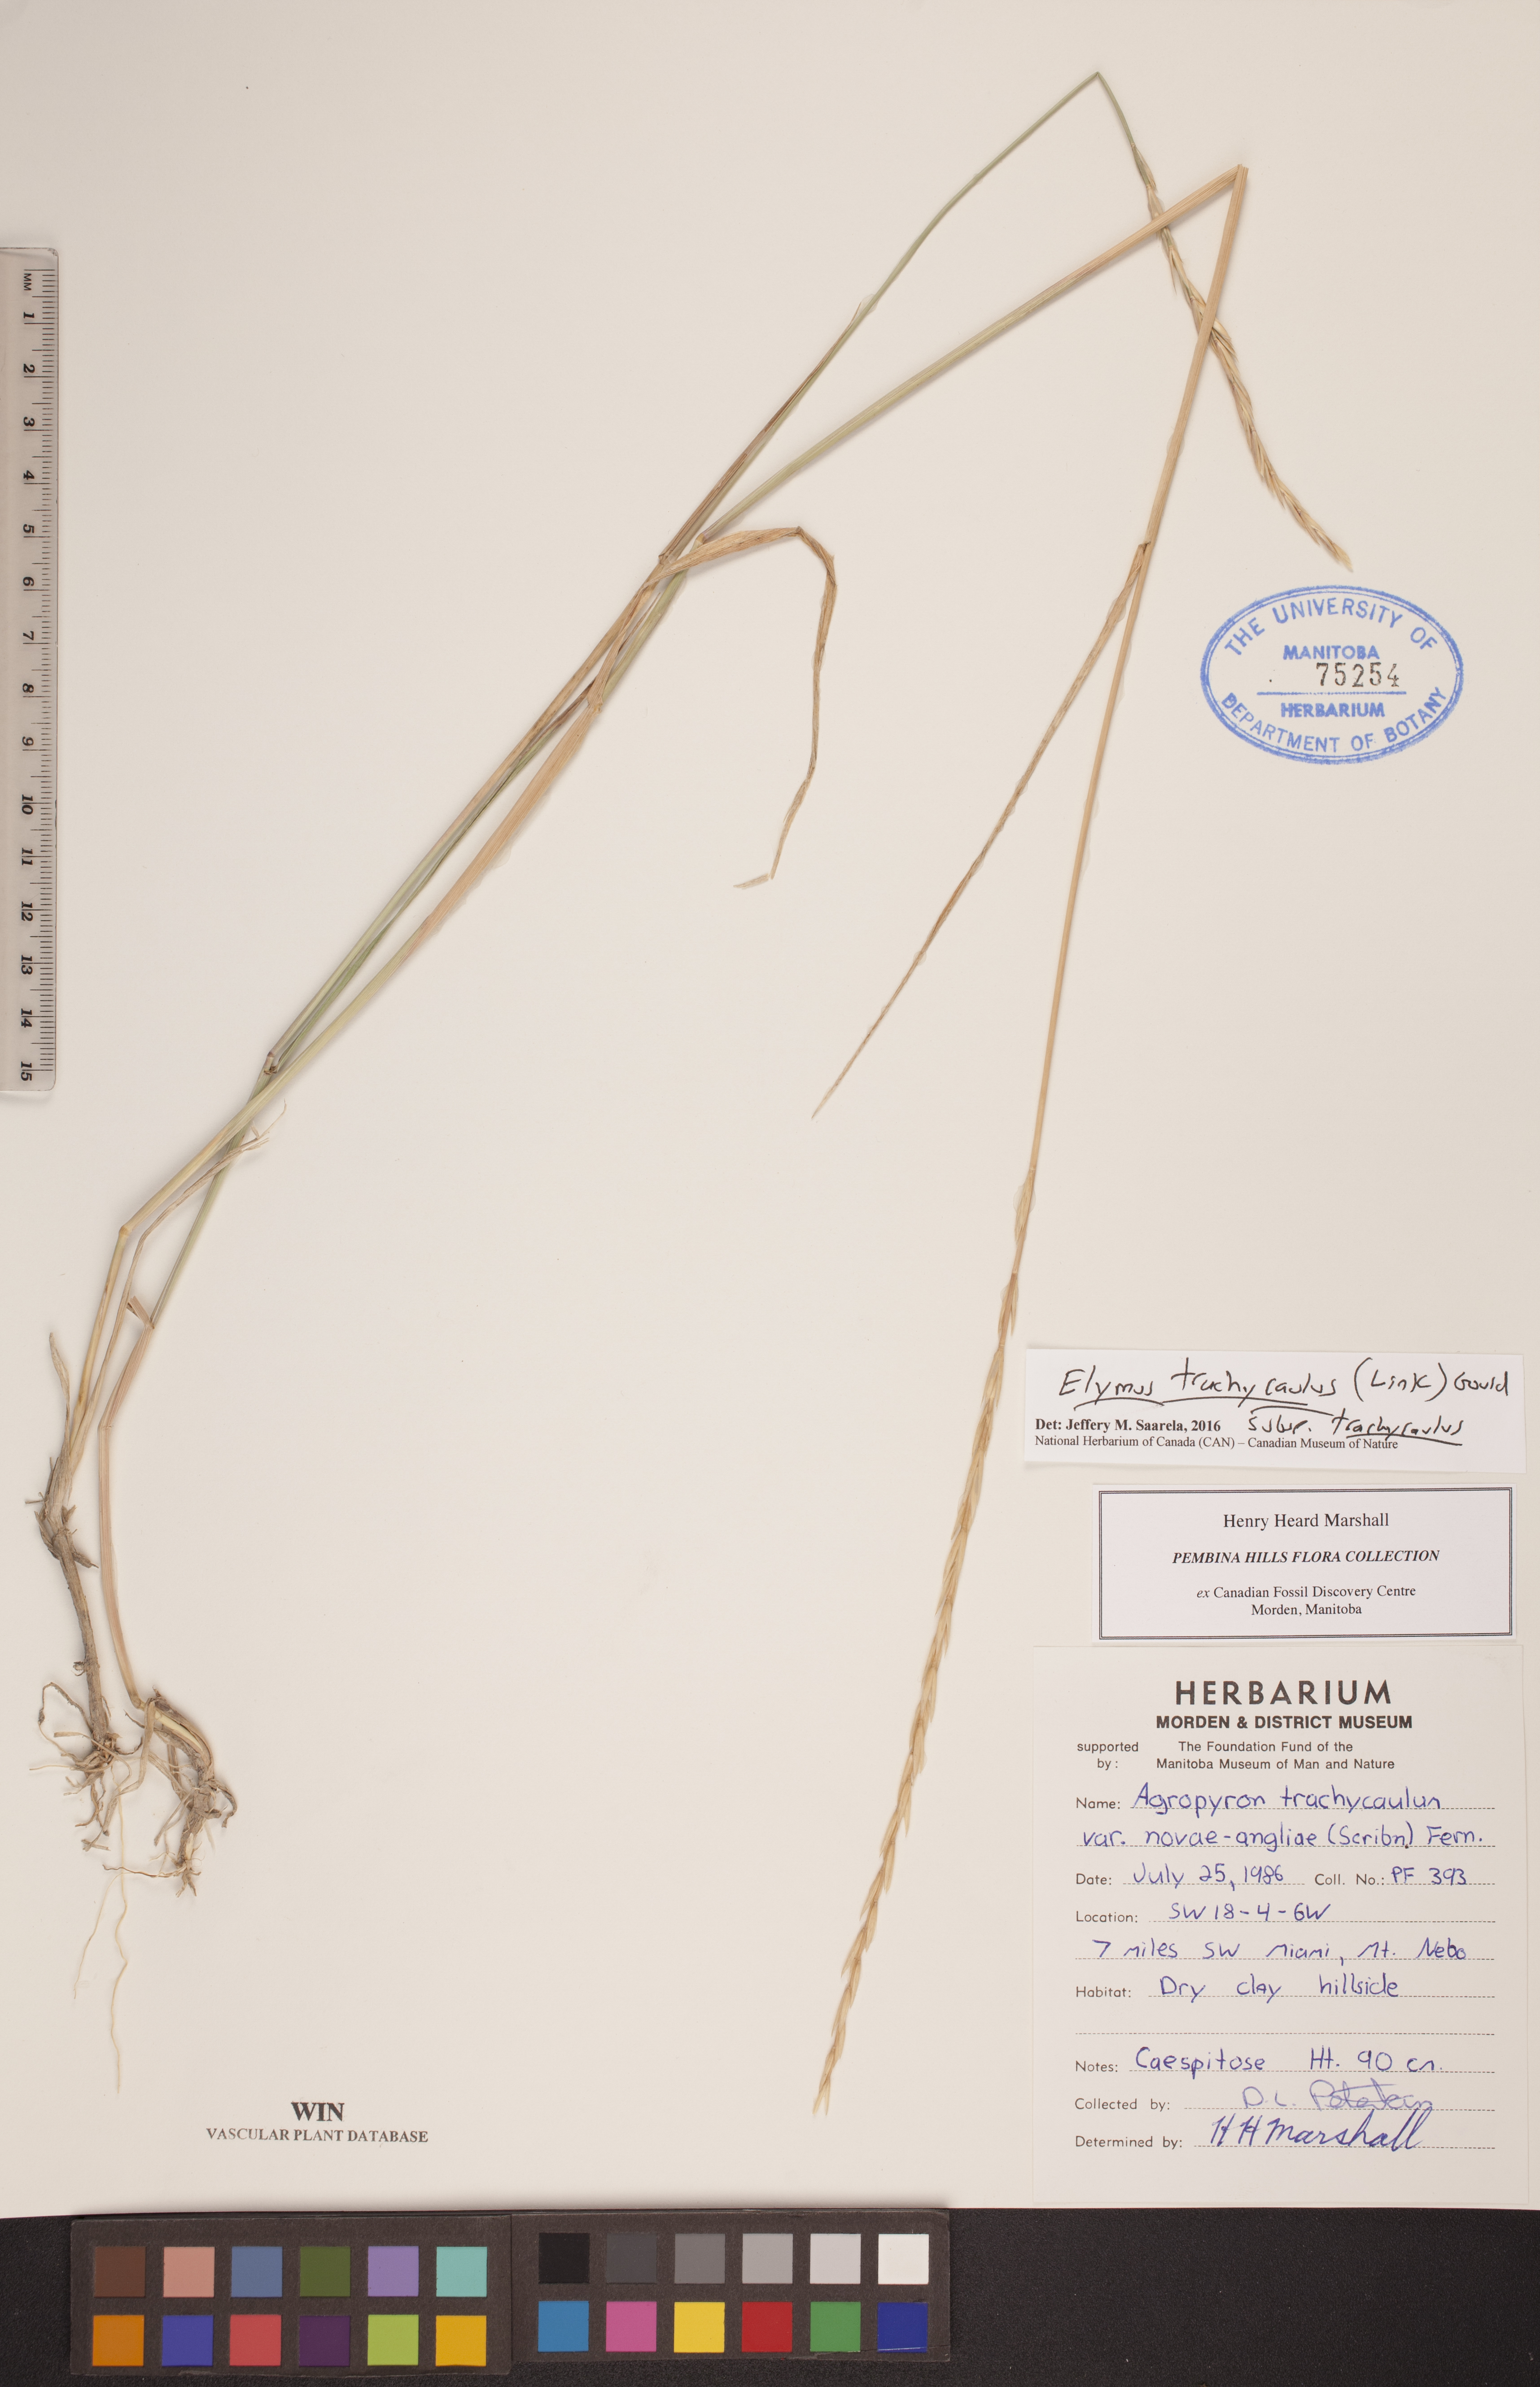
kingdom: Plantae
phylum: Tracheophyta
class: Liliopsida
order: Poales
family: Poaceae
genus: Elymus
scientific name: Elymus violaceus
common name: Arctic wheatgrass
